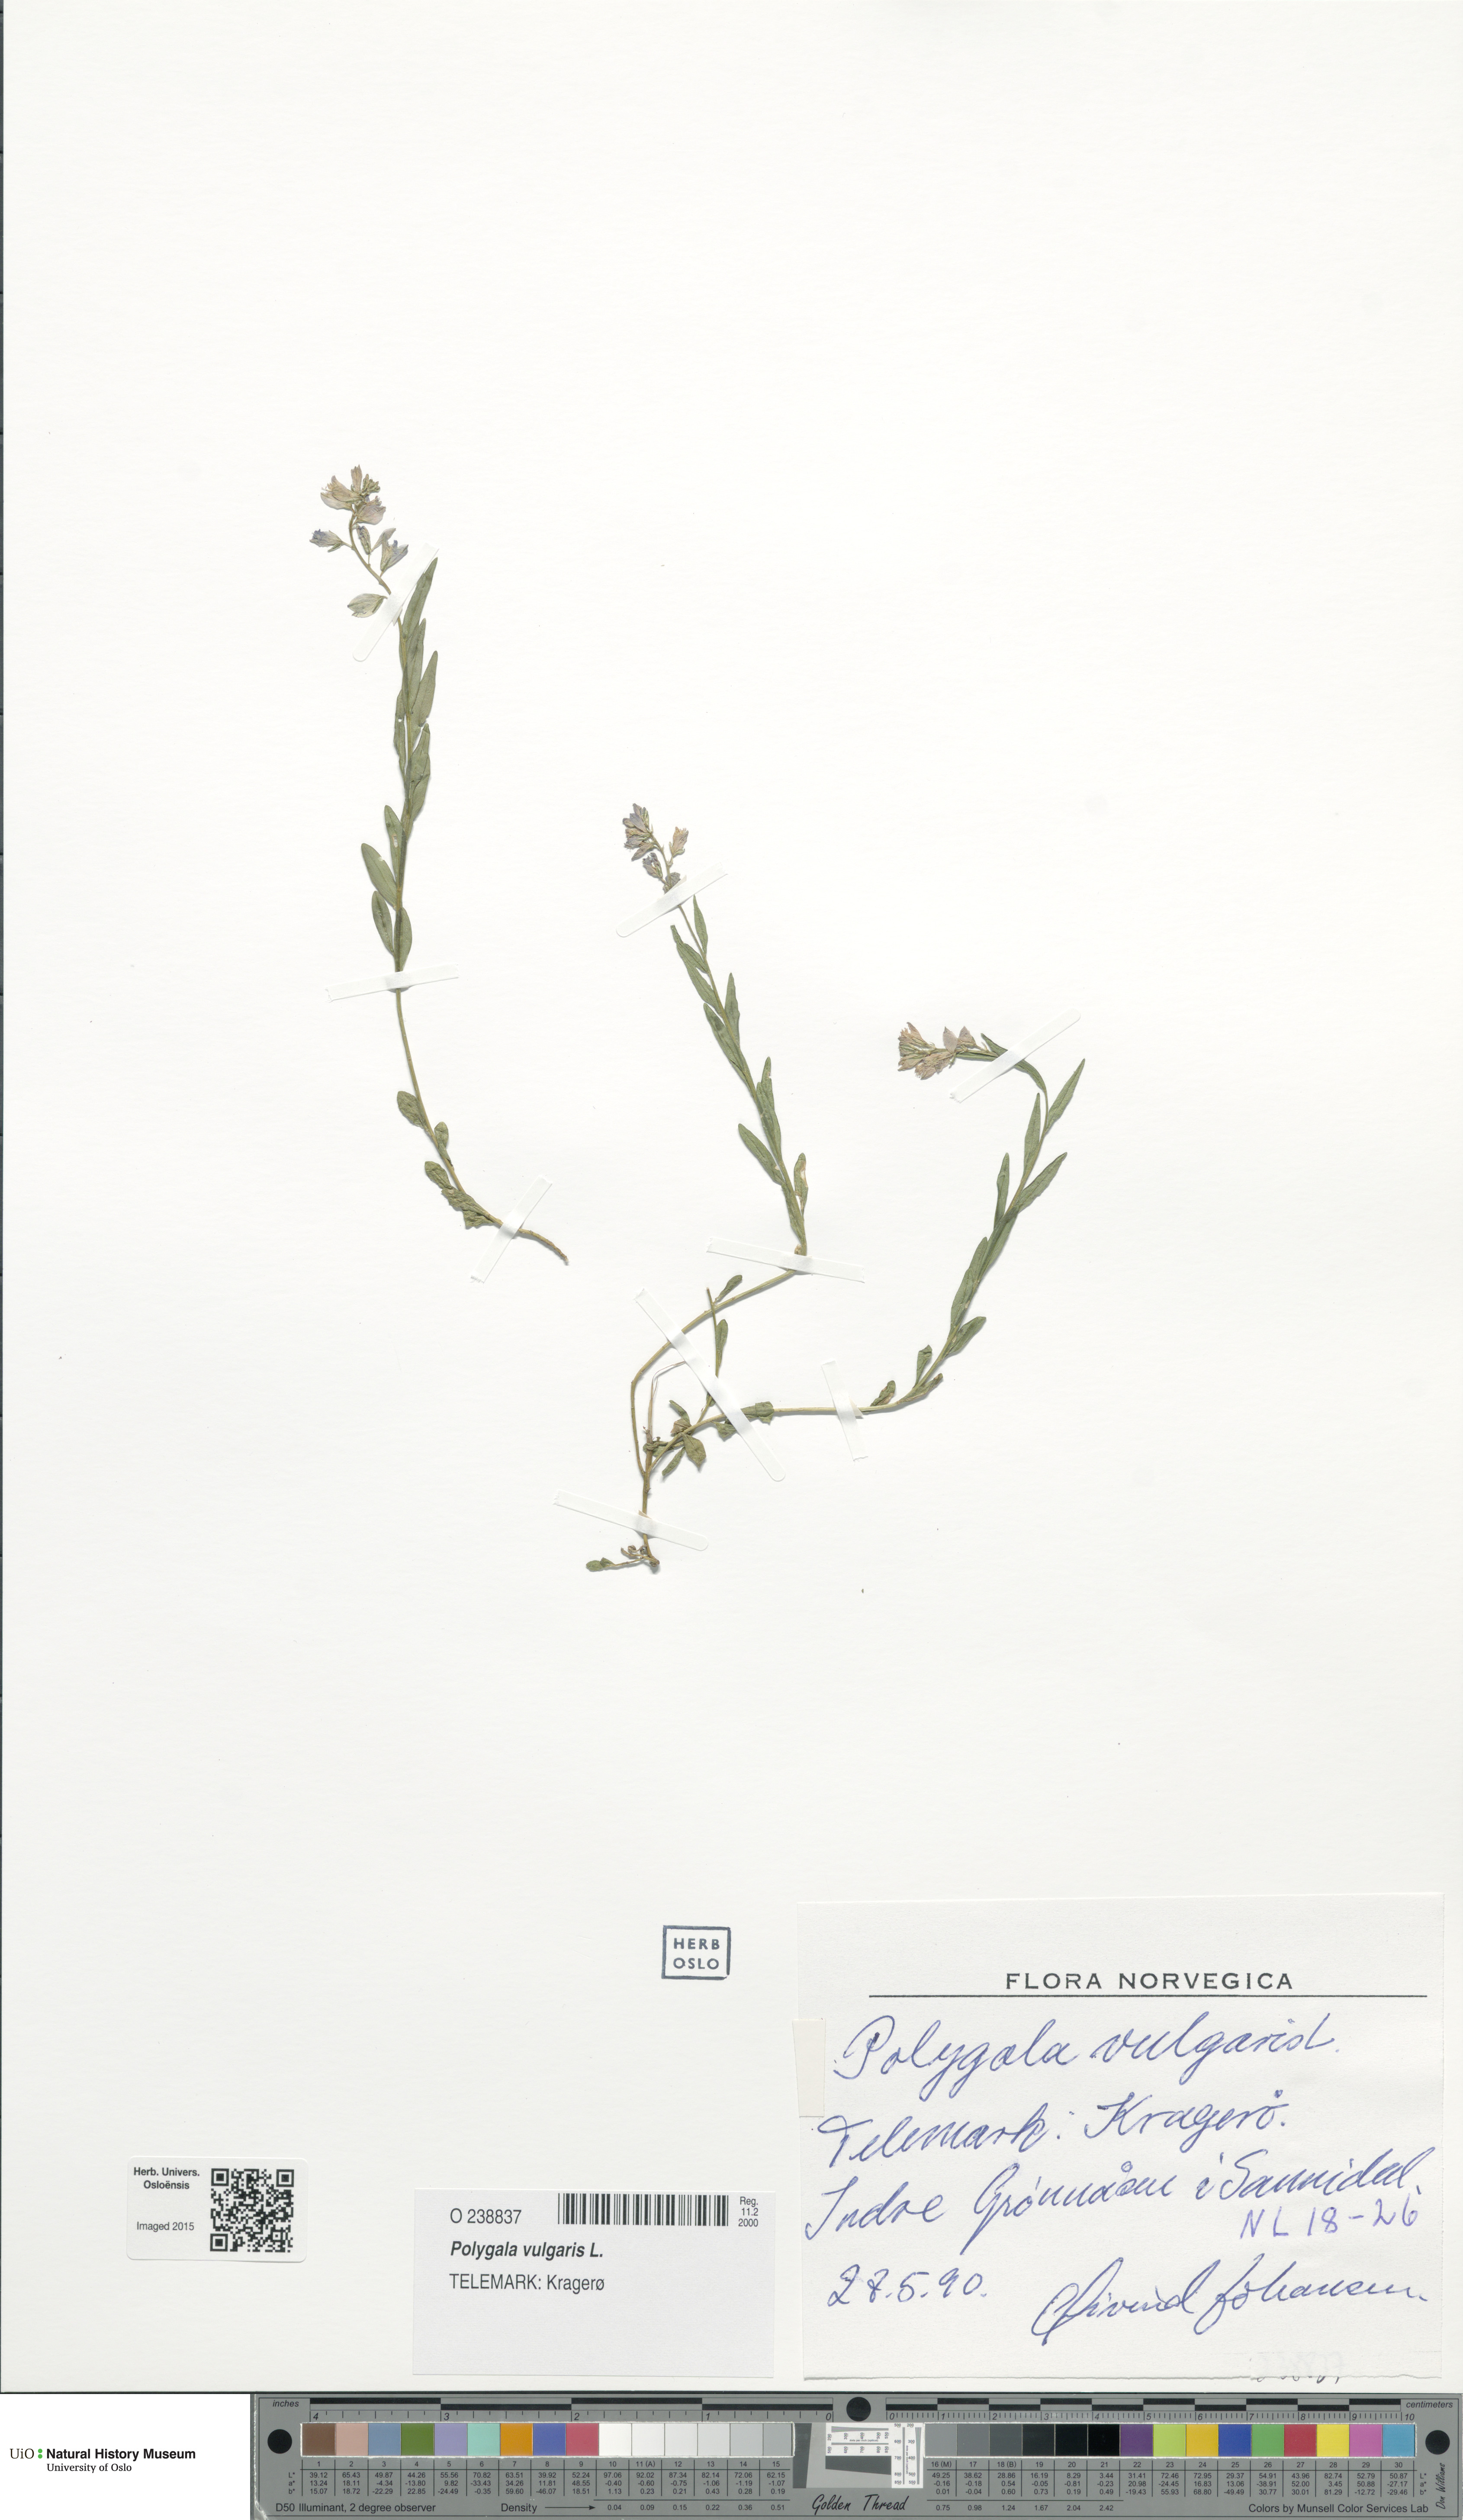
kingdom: Plantae
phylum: Tracheophyta
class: Magnoliopsida
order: Fabales
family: Polygalaceae
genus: Polygala
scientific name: Polygala vulgaris
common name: Common milkwort
